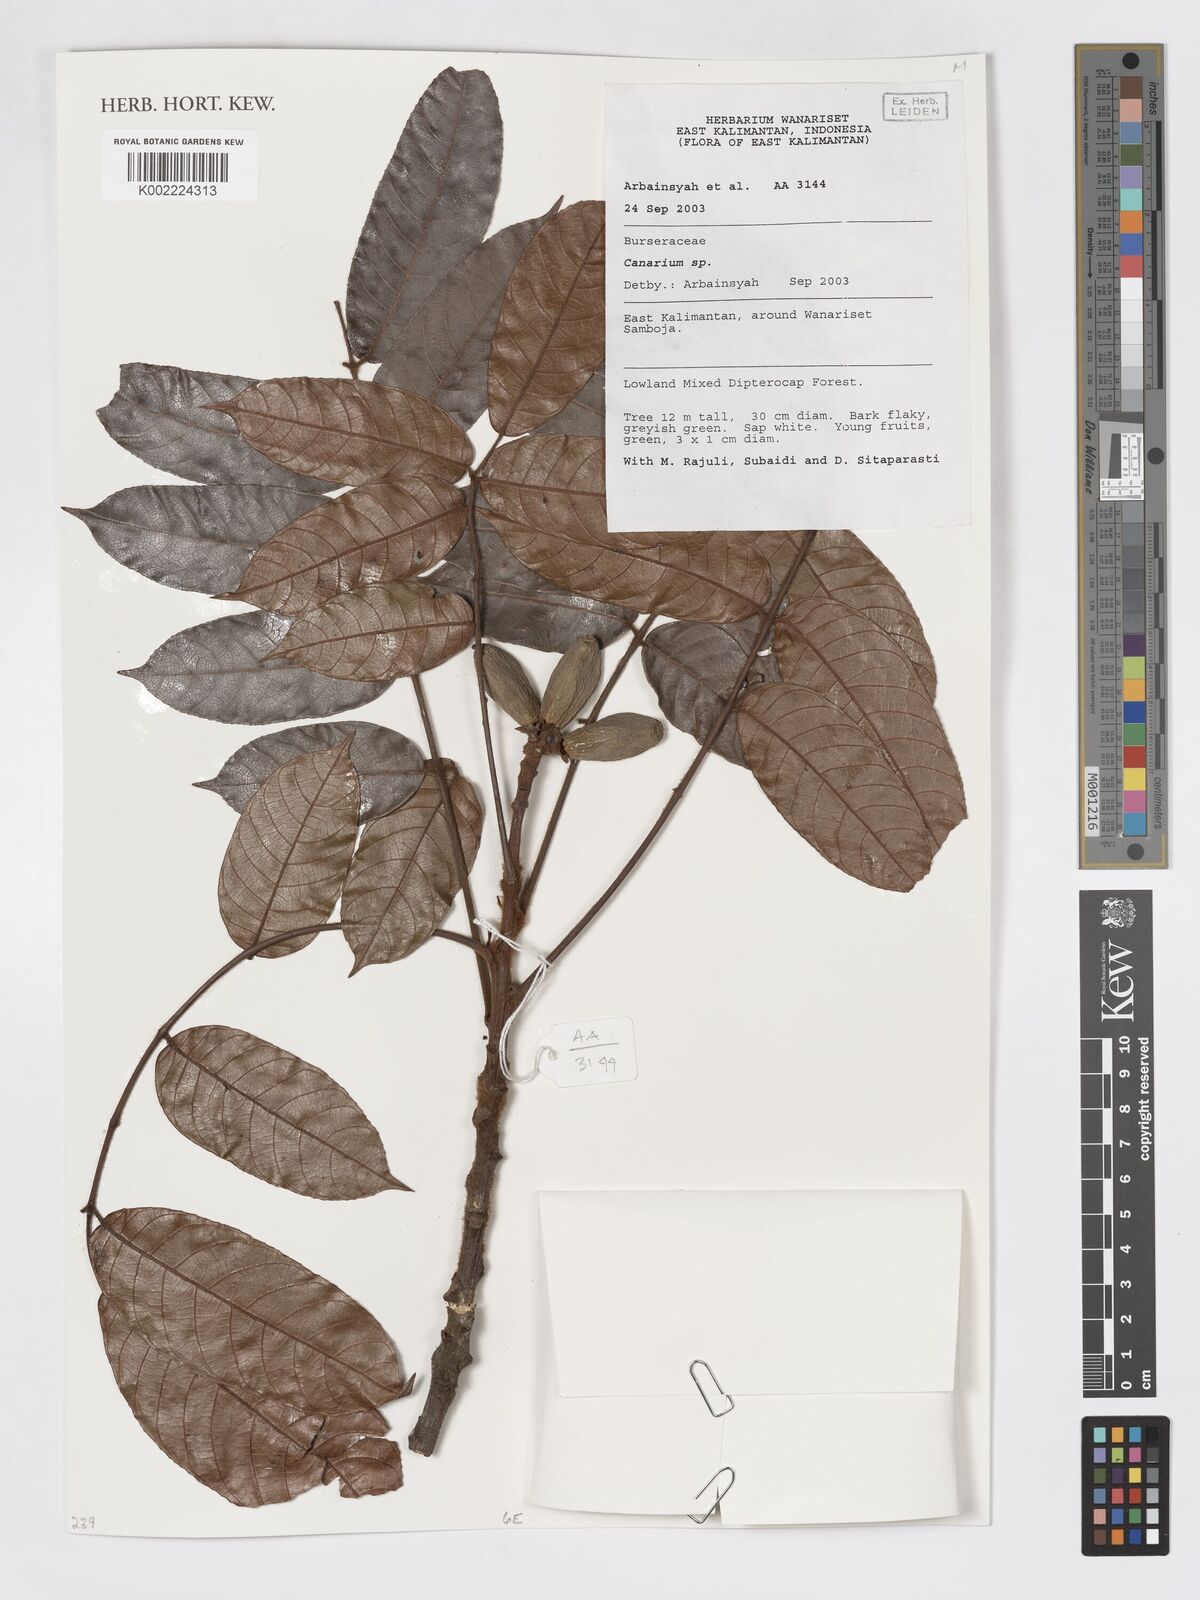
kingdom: Plantae
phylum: Tracheophyta
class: Magnoliopsida
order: Sapindales
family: Burseraceae
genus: Canarium
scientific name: Canarium
